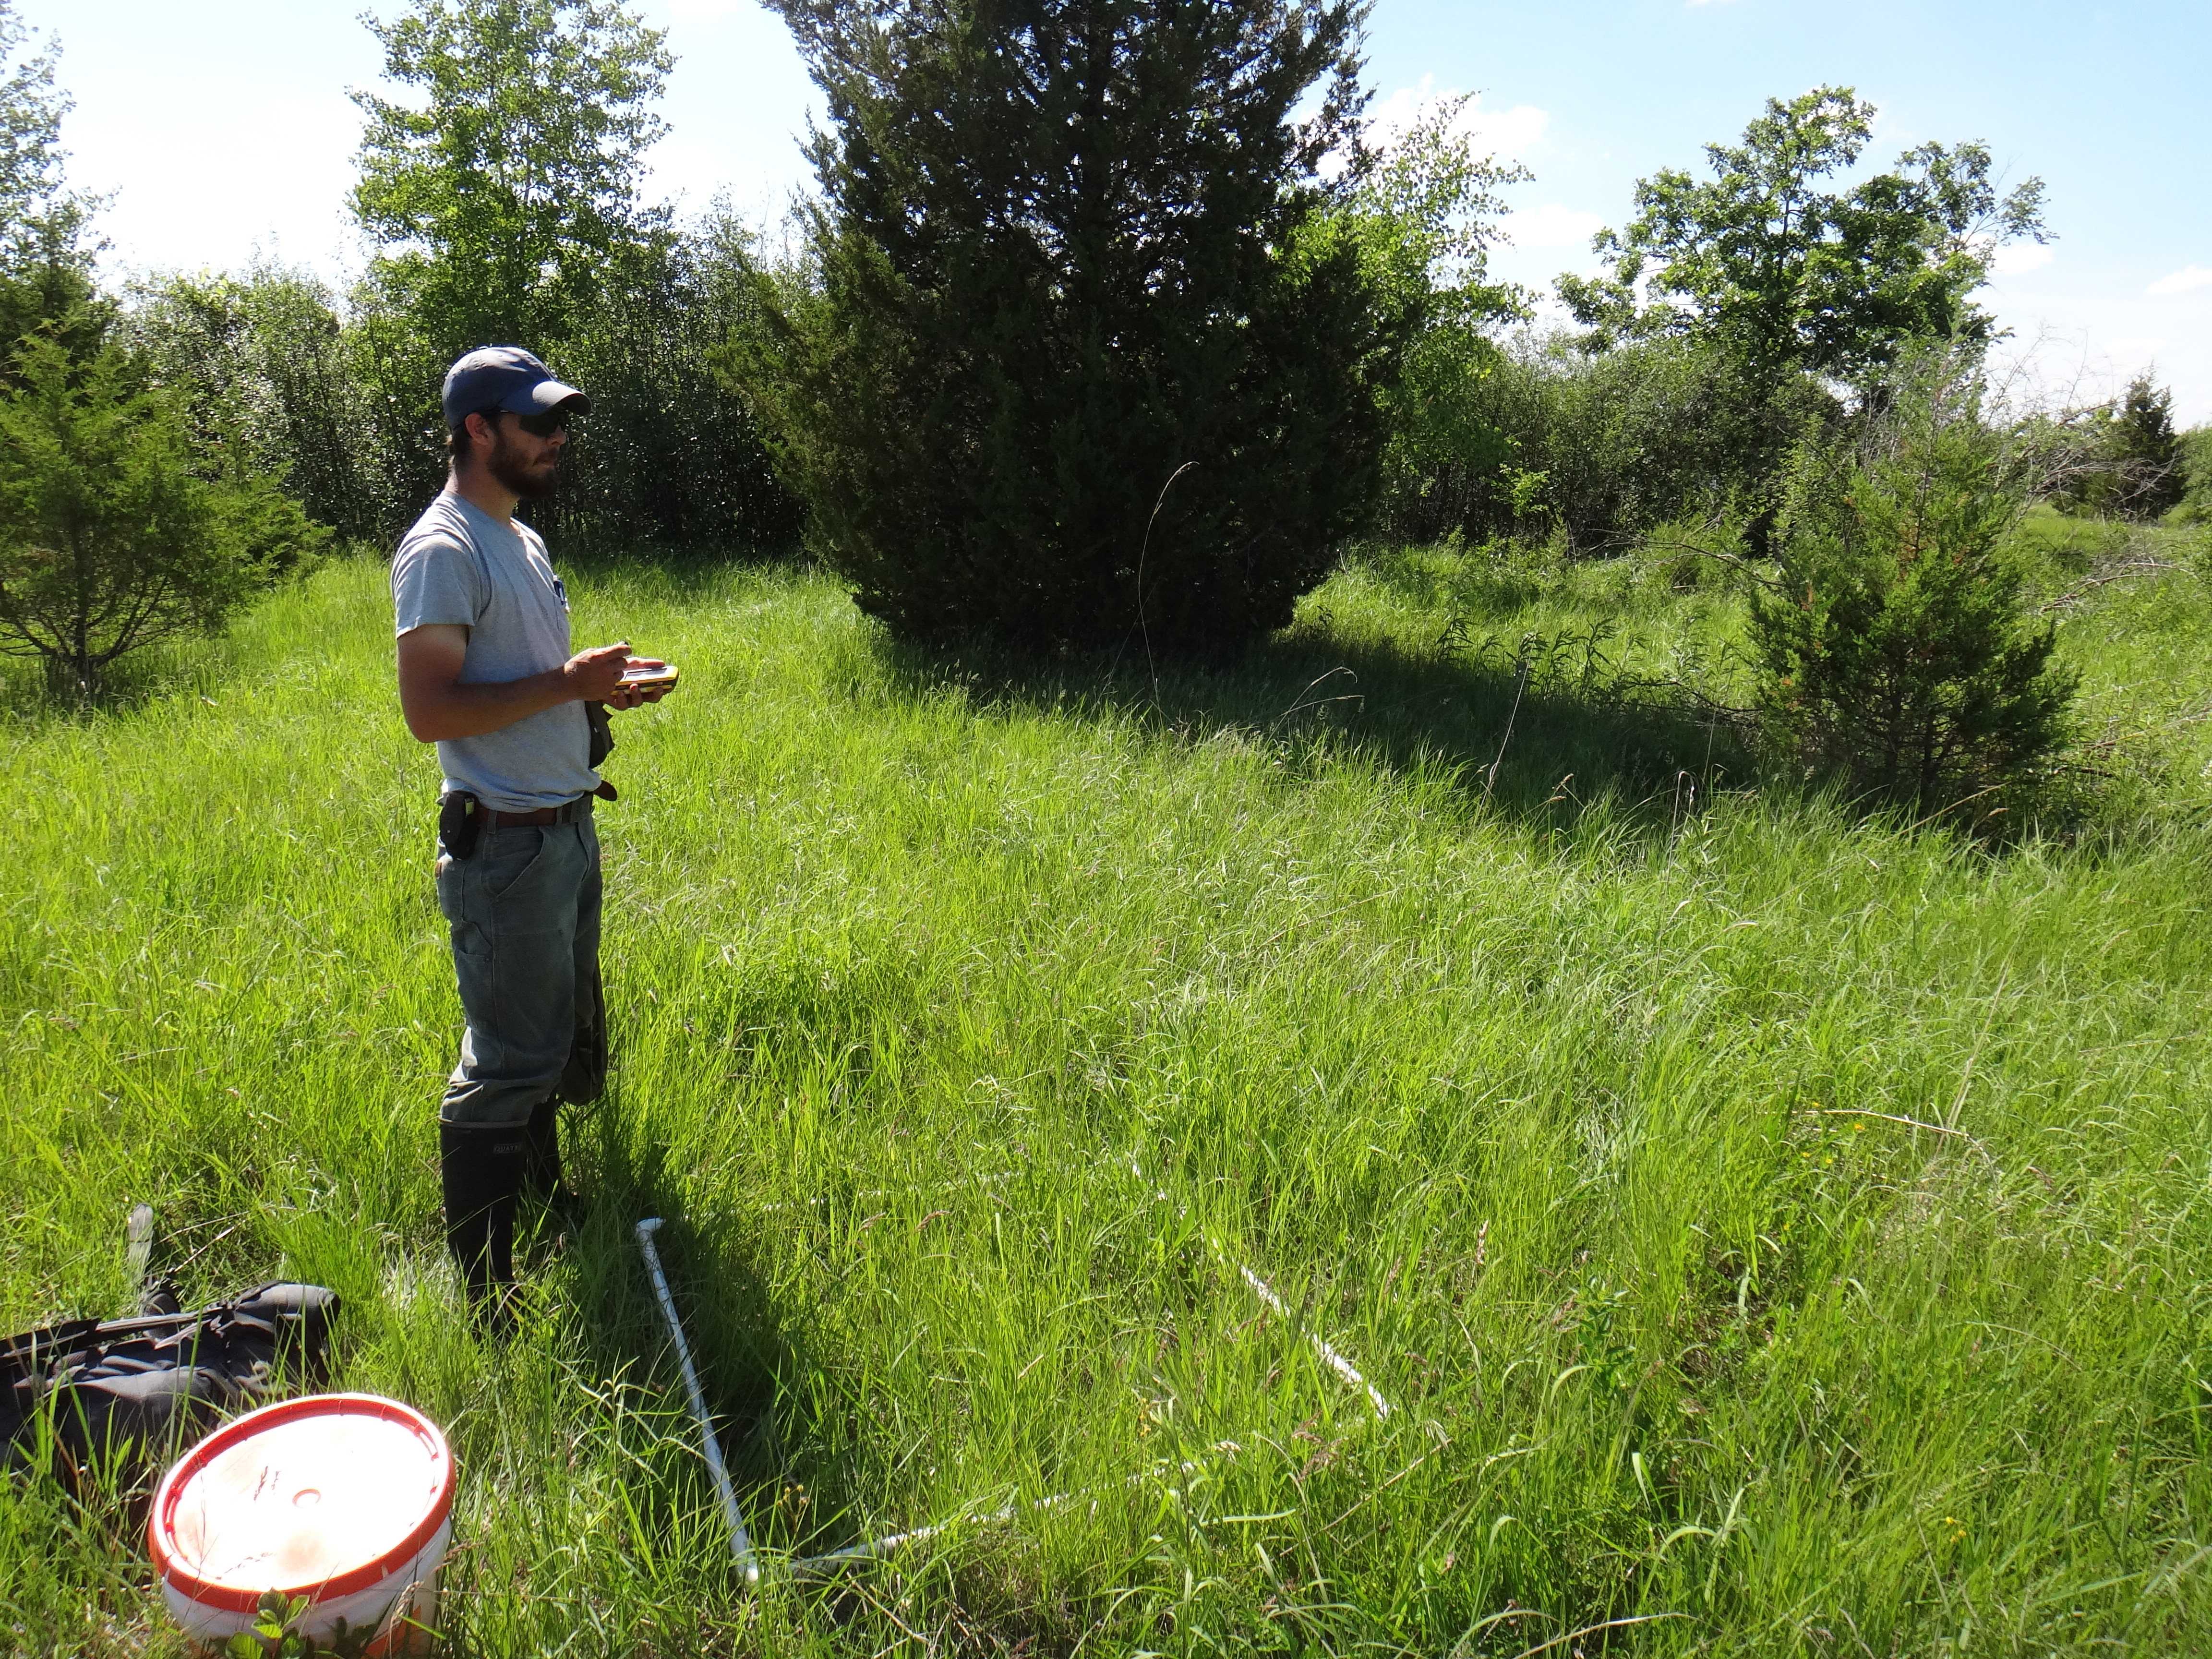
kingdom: Plantae
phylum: Tracheophyta
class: Magnoliopsida
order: Asterales
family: Asteraceae
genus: Packera
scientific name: Packera paupercula
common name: Balsam groundsel
